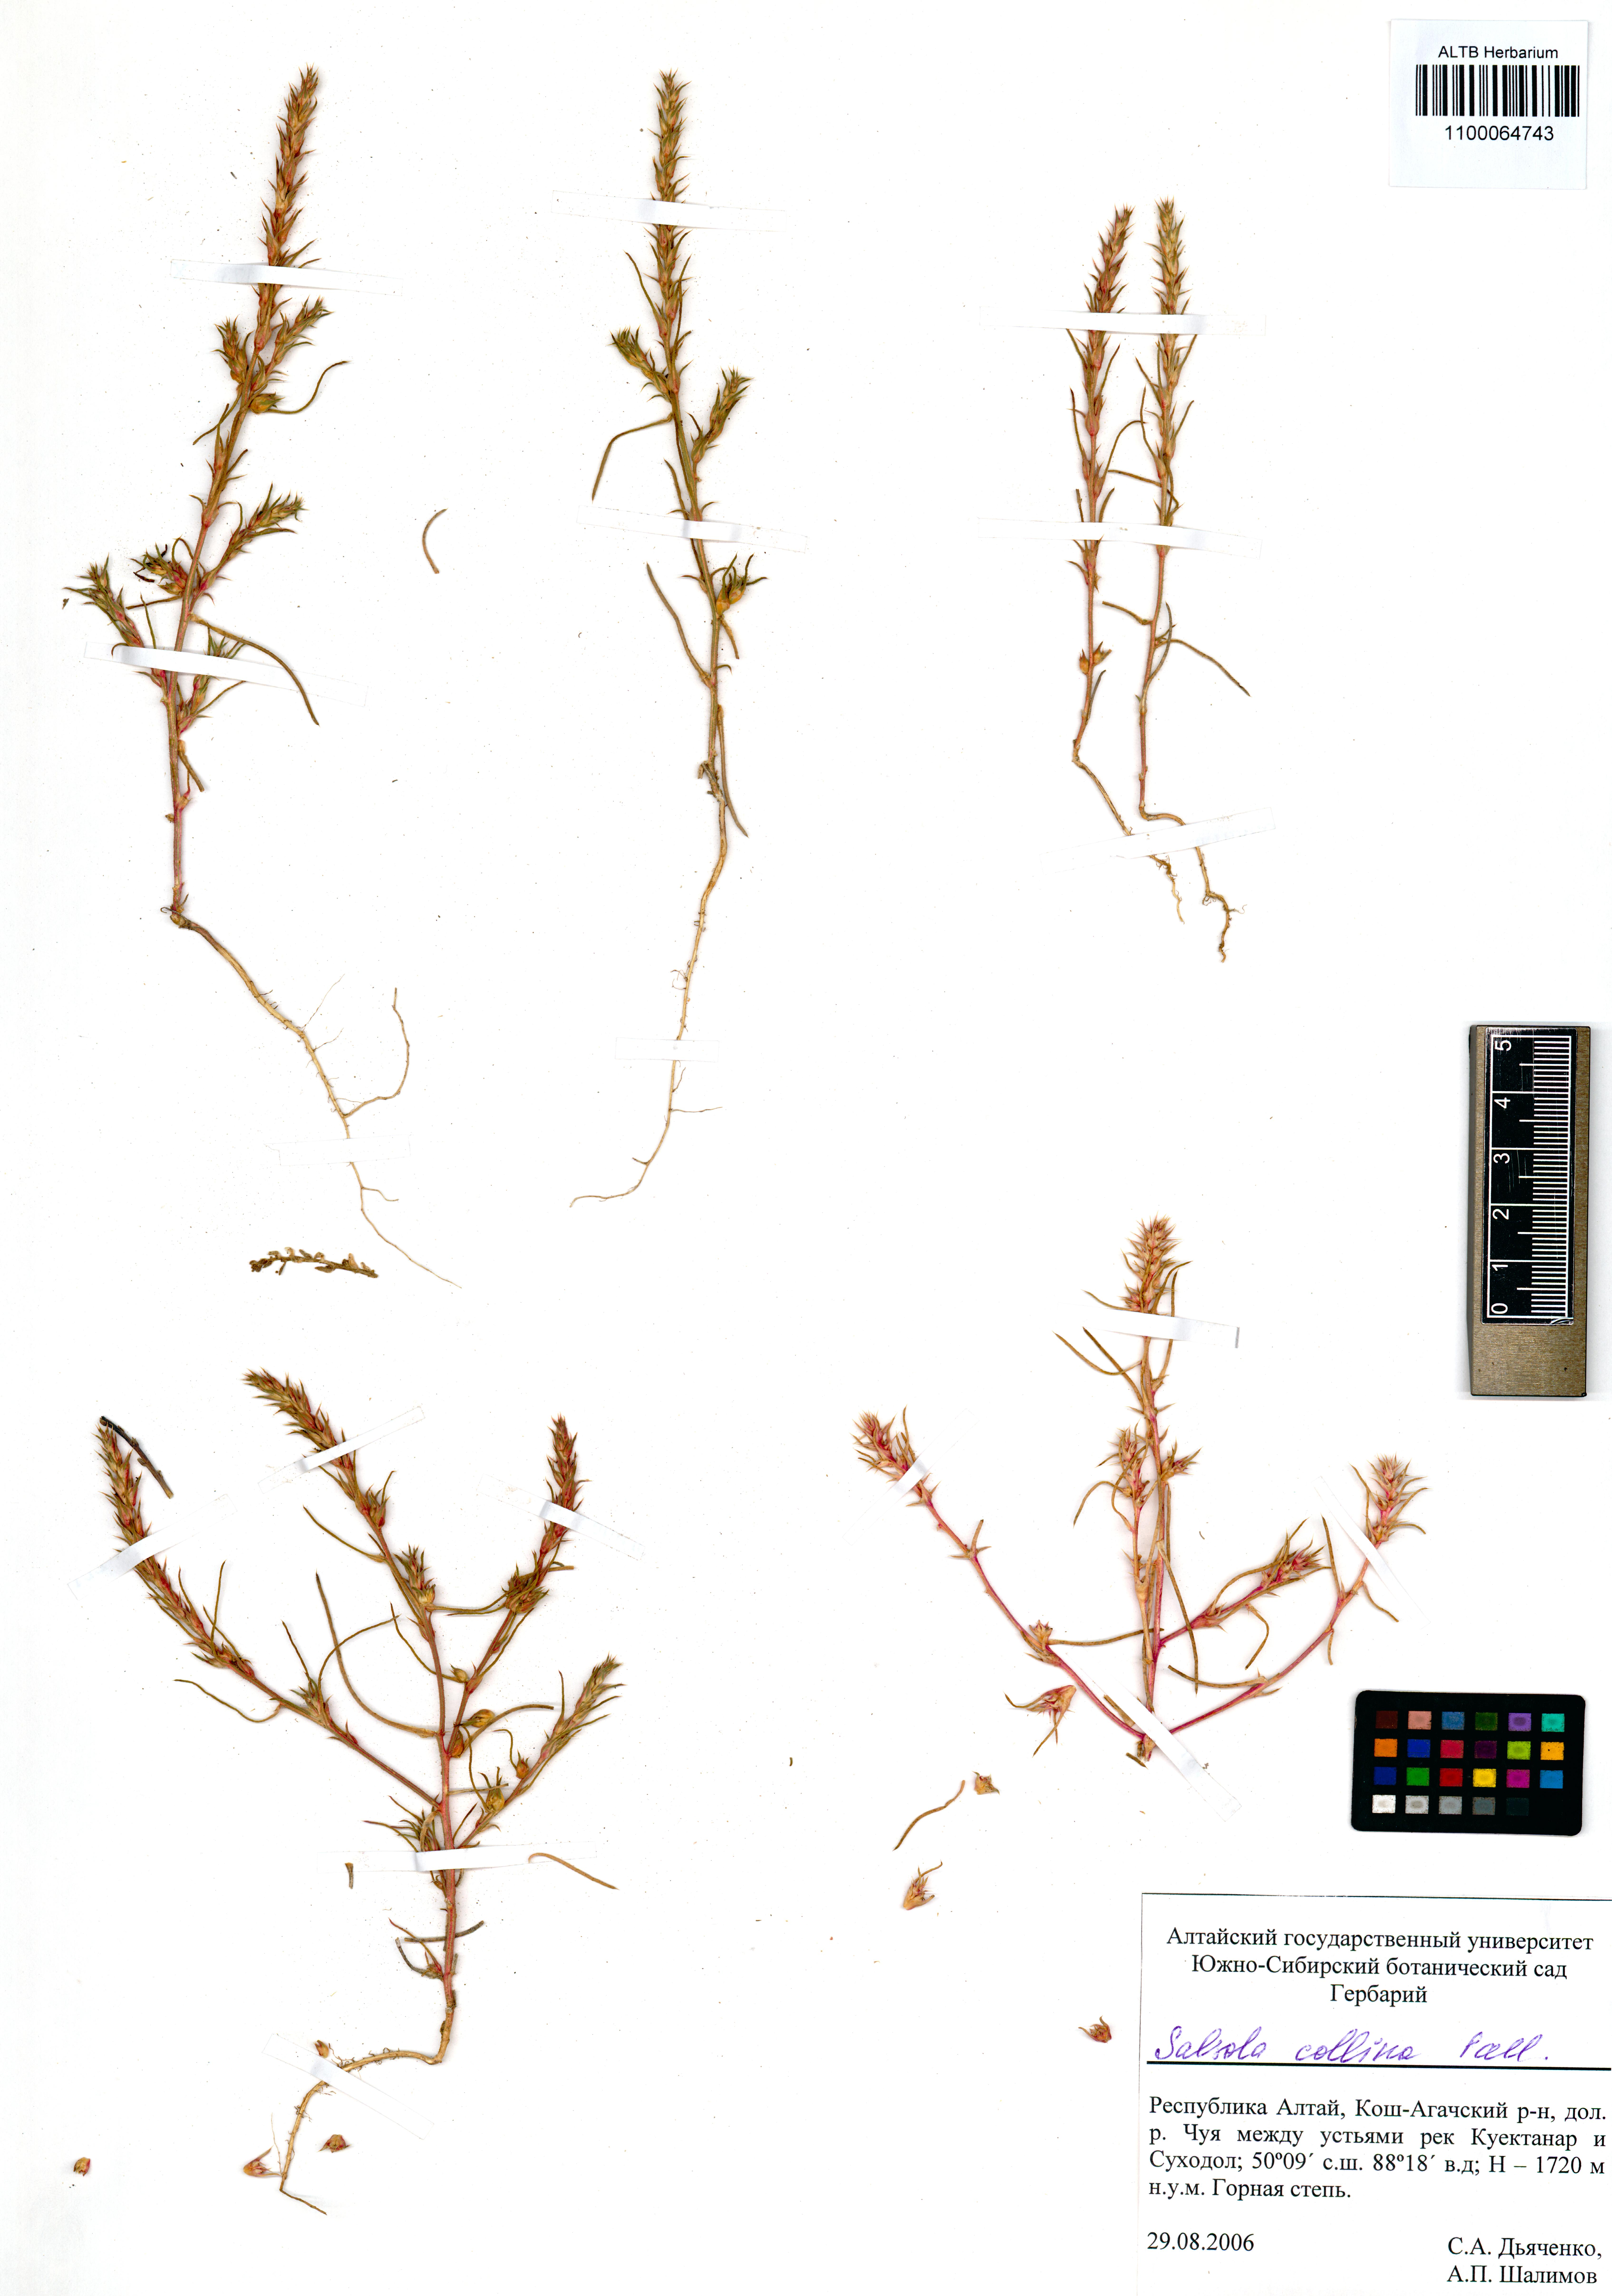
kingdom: Plantae
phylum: Tracheophyta
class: Magnoliopsida
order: Caryophyllales
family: Amaranthaceae
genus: Salsola
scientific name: Salsola collina
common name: Tumbleweed
